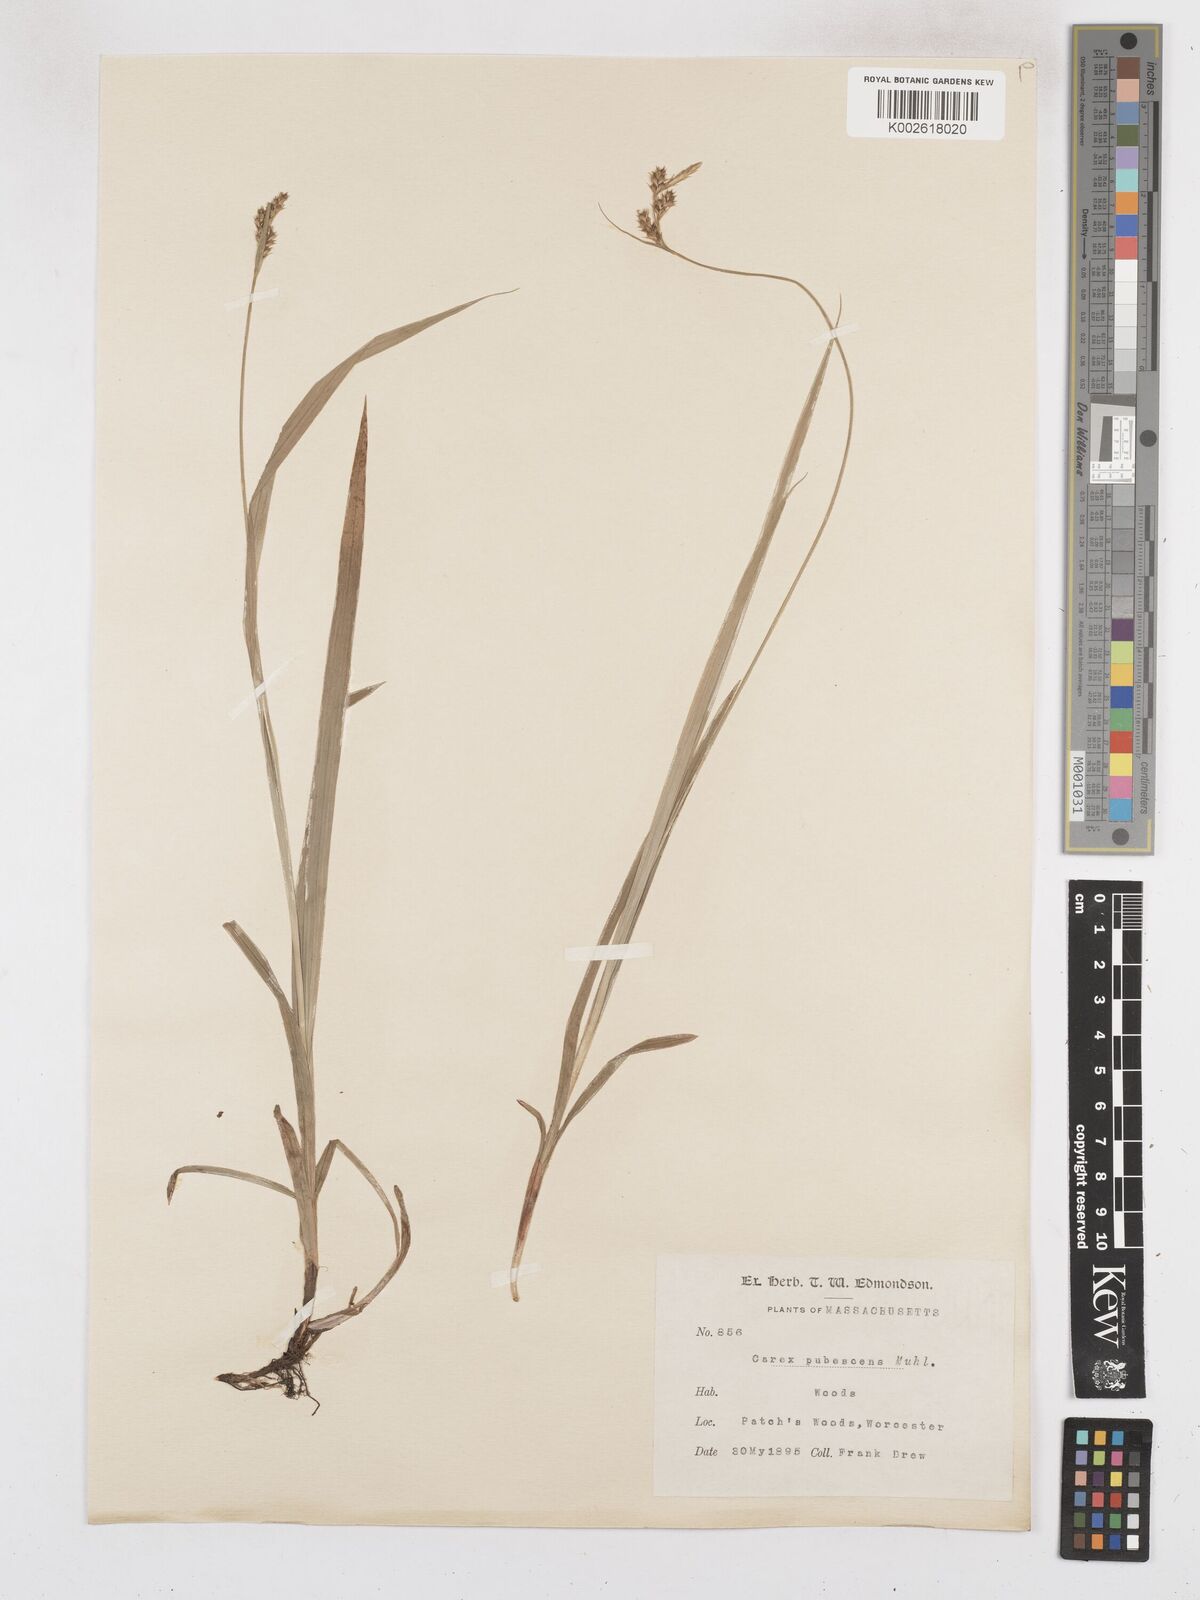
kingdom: Plantae
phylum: Tracheophyta
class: Liliopsida
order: Poales
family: Cyperaceae
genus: Carex
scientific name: Carex hirtifolia
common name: Hairy sedge
